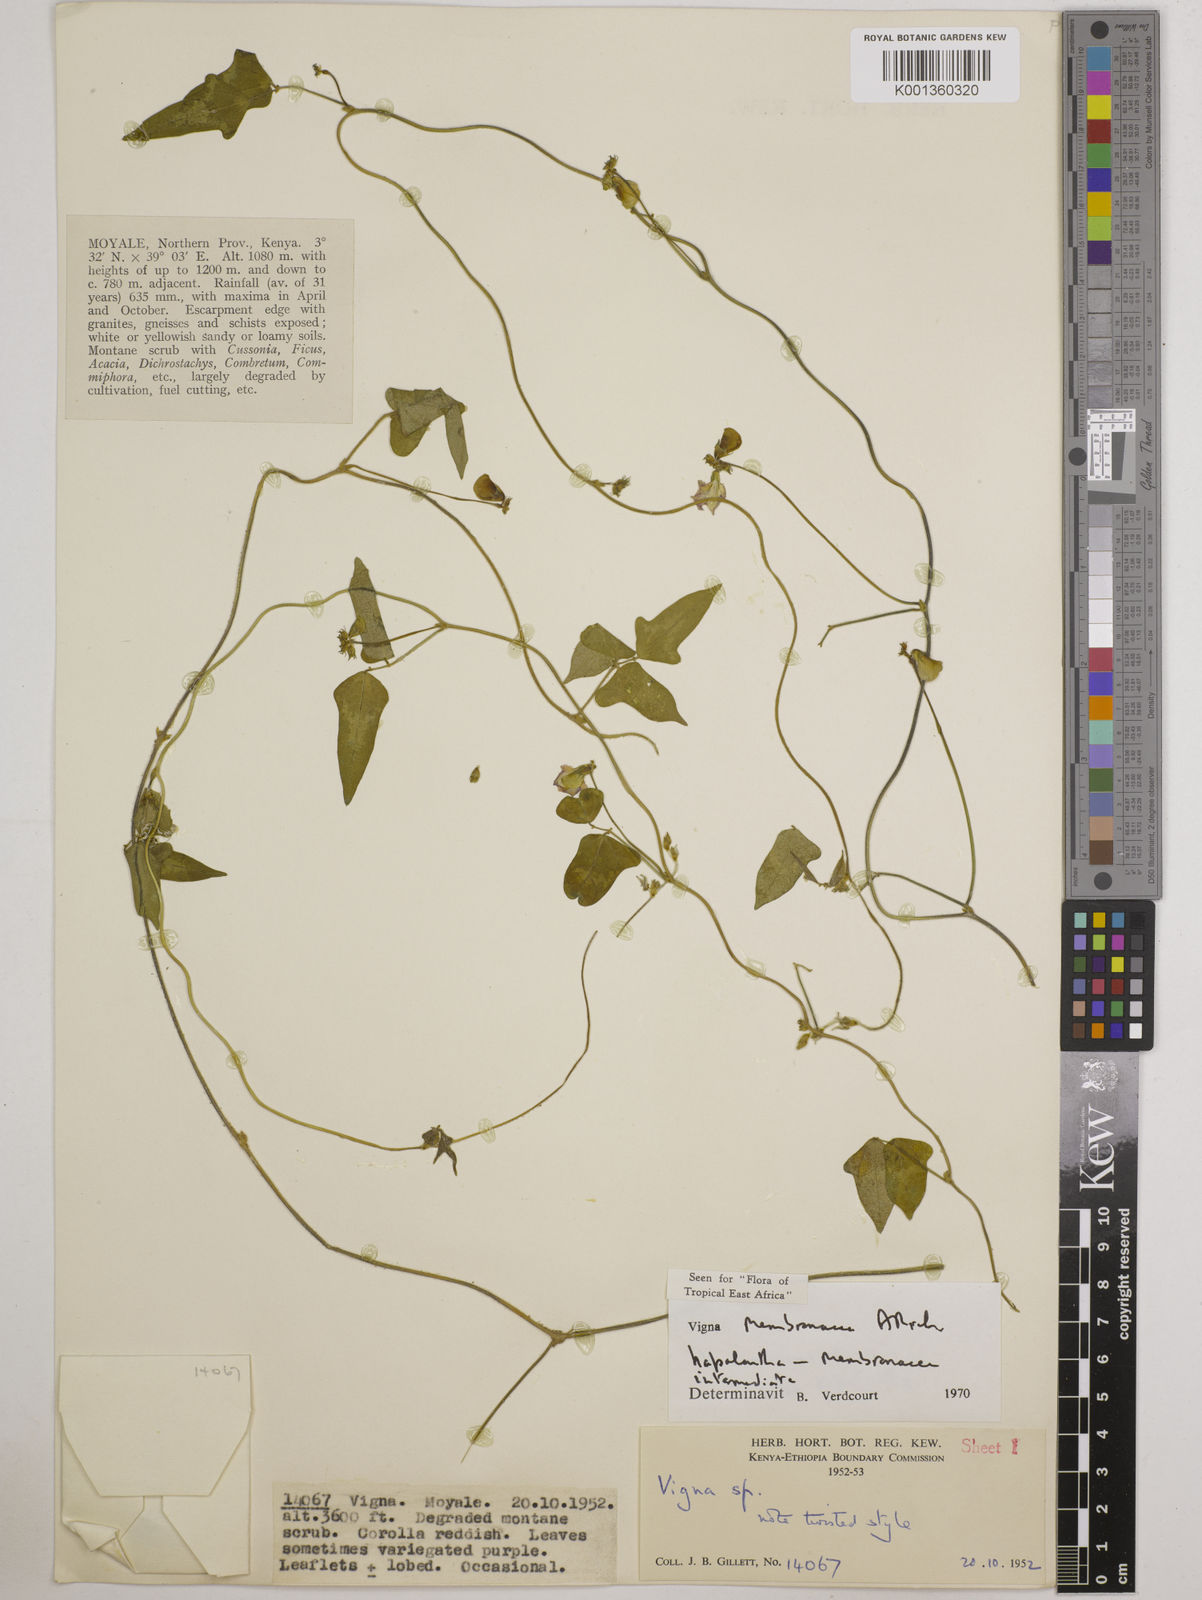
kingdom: Plantae
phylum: Tracheophyta
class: Magnoliopsida
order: Fabales
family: Fabaceae
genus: Vigna
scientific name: Vigna
